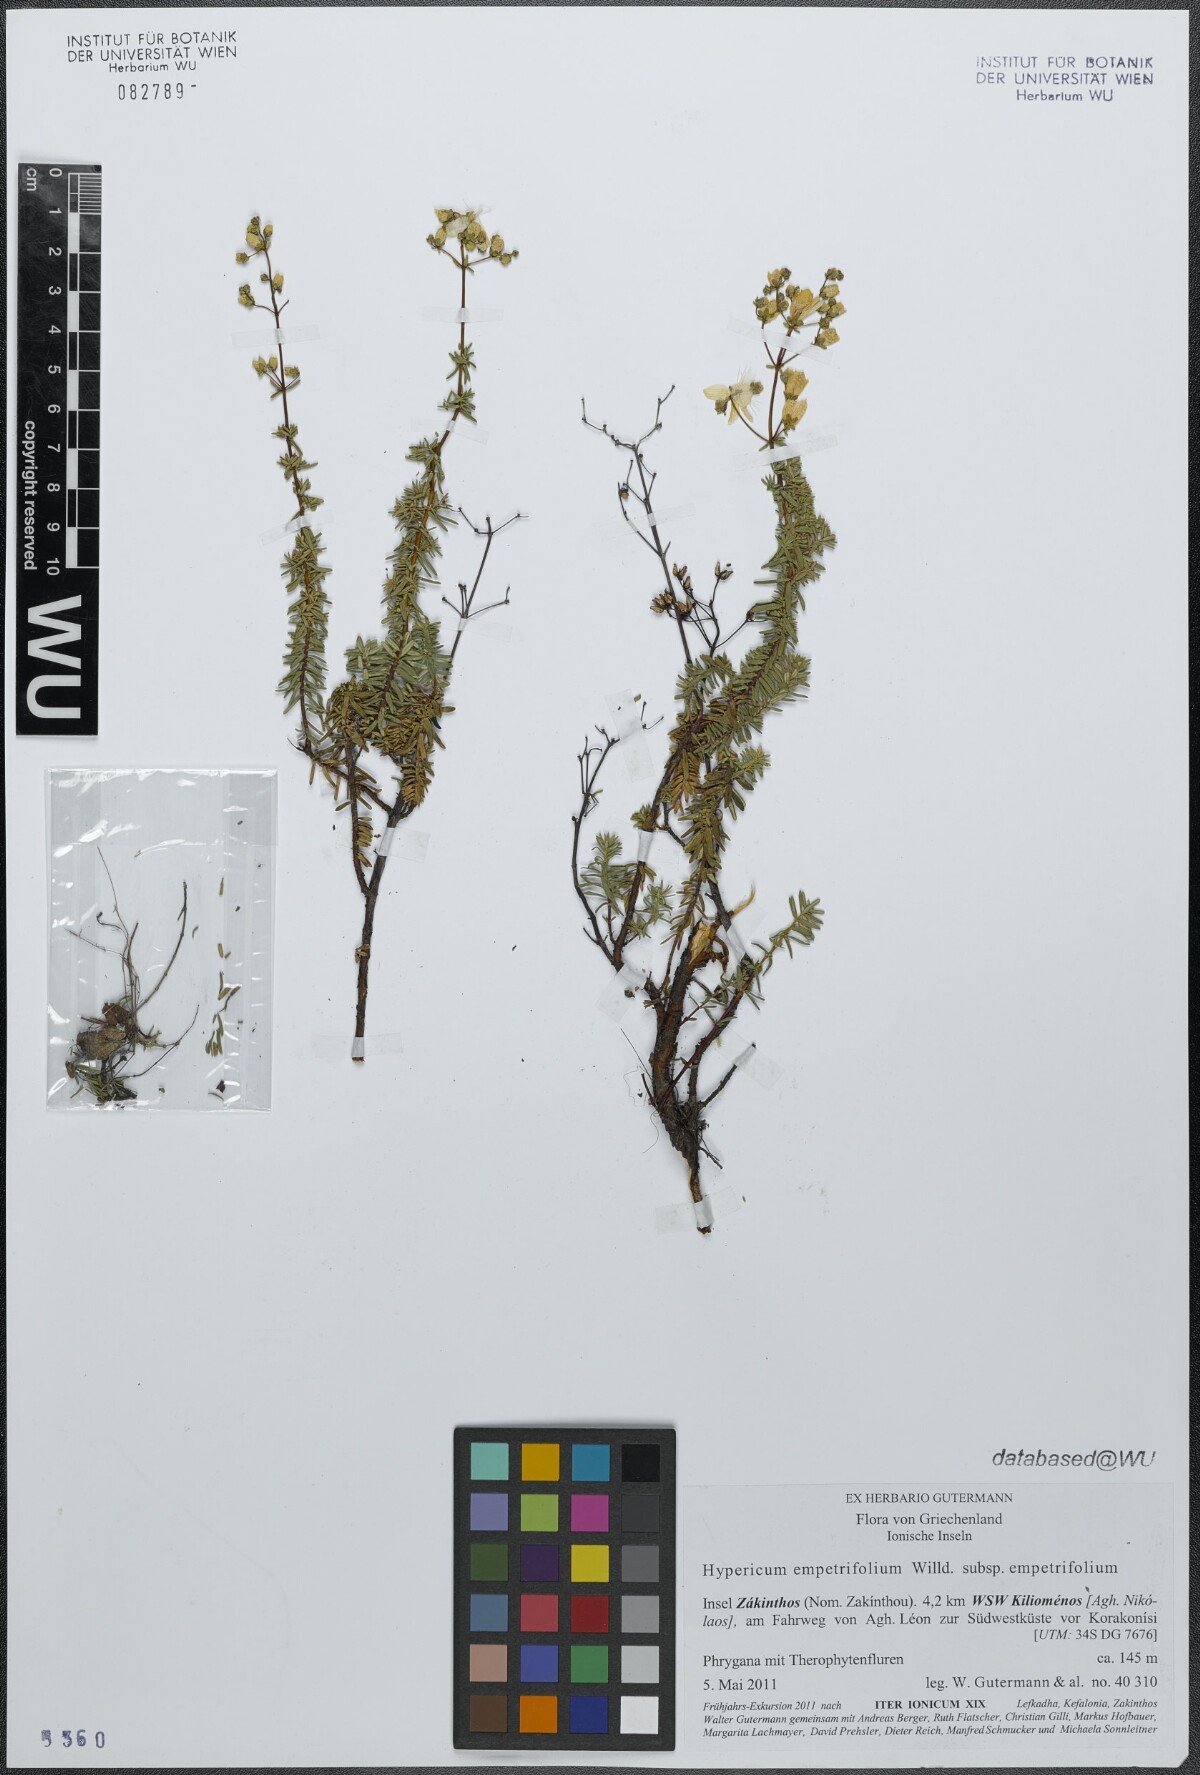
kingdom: Plantae
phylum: Tracheophyta
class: Magnoliopsida
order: Malpighiales
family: Hypericaceae
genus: Hypericum
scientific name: Hypericum empetrifolium
